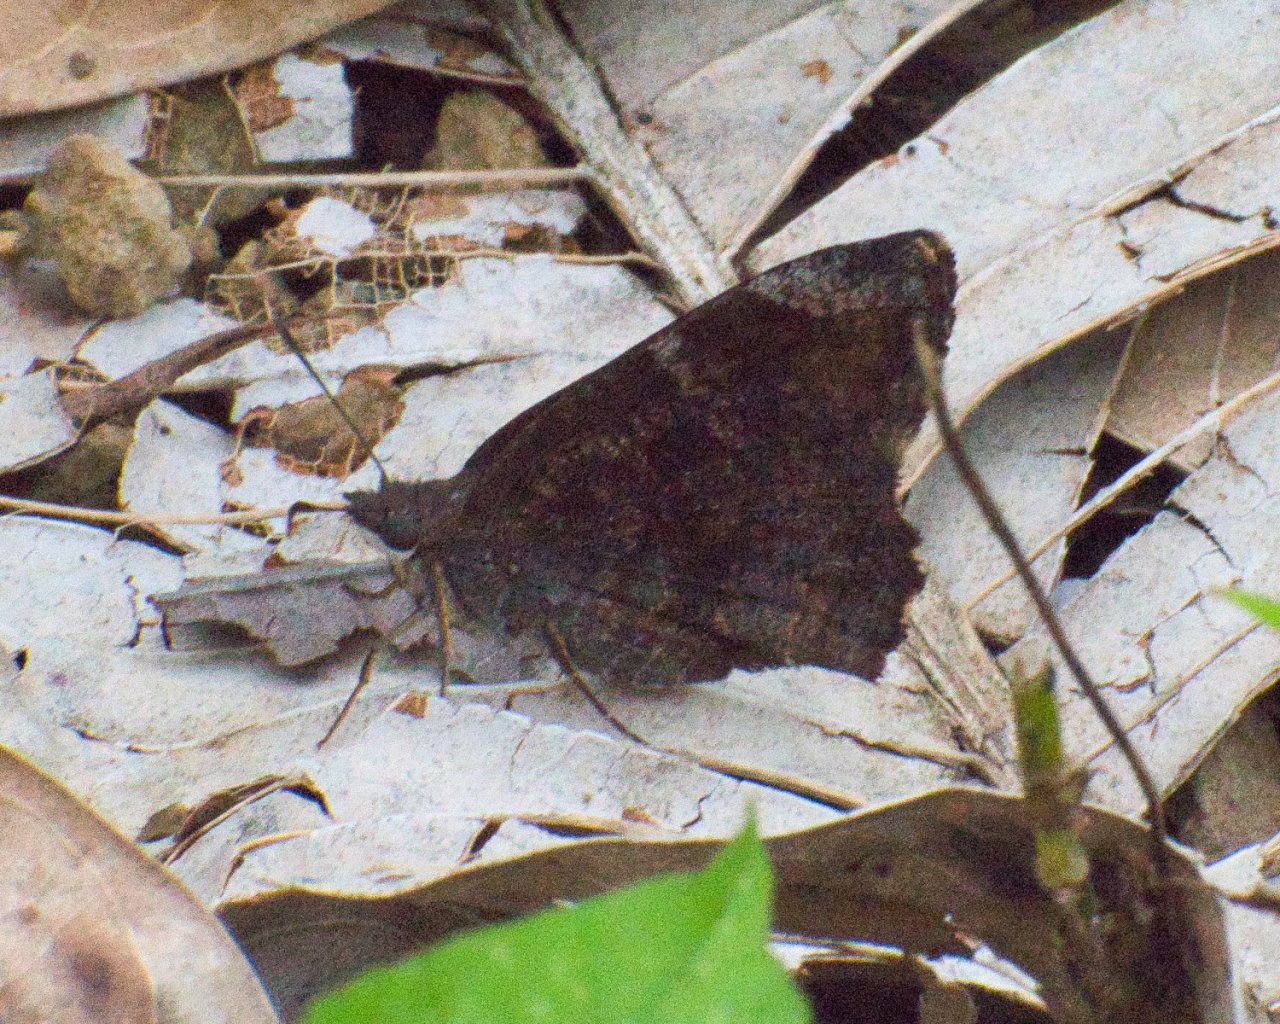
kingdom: Animalia
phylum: Arthropoda
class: Insecta
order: Lepidoptera
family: Hesperiidae
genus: Caicella
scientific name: Caicella calchas
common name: Mimosa Skipper
